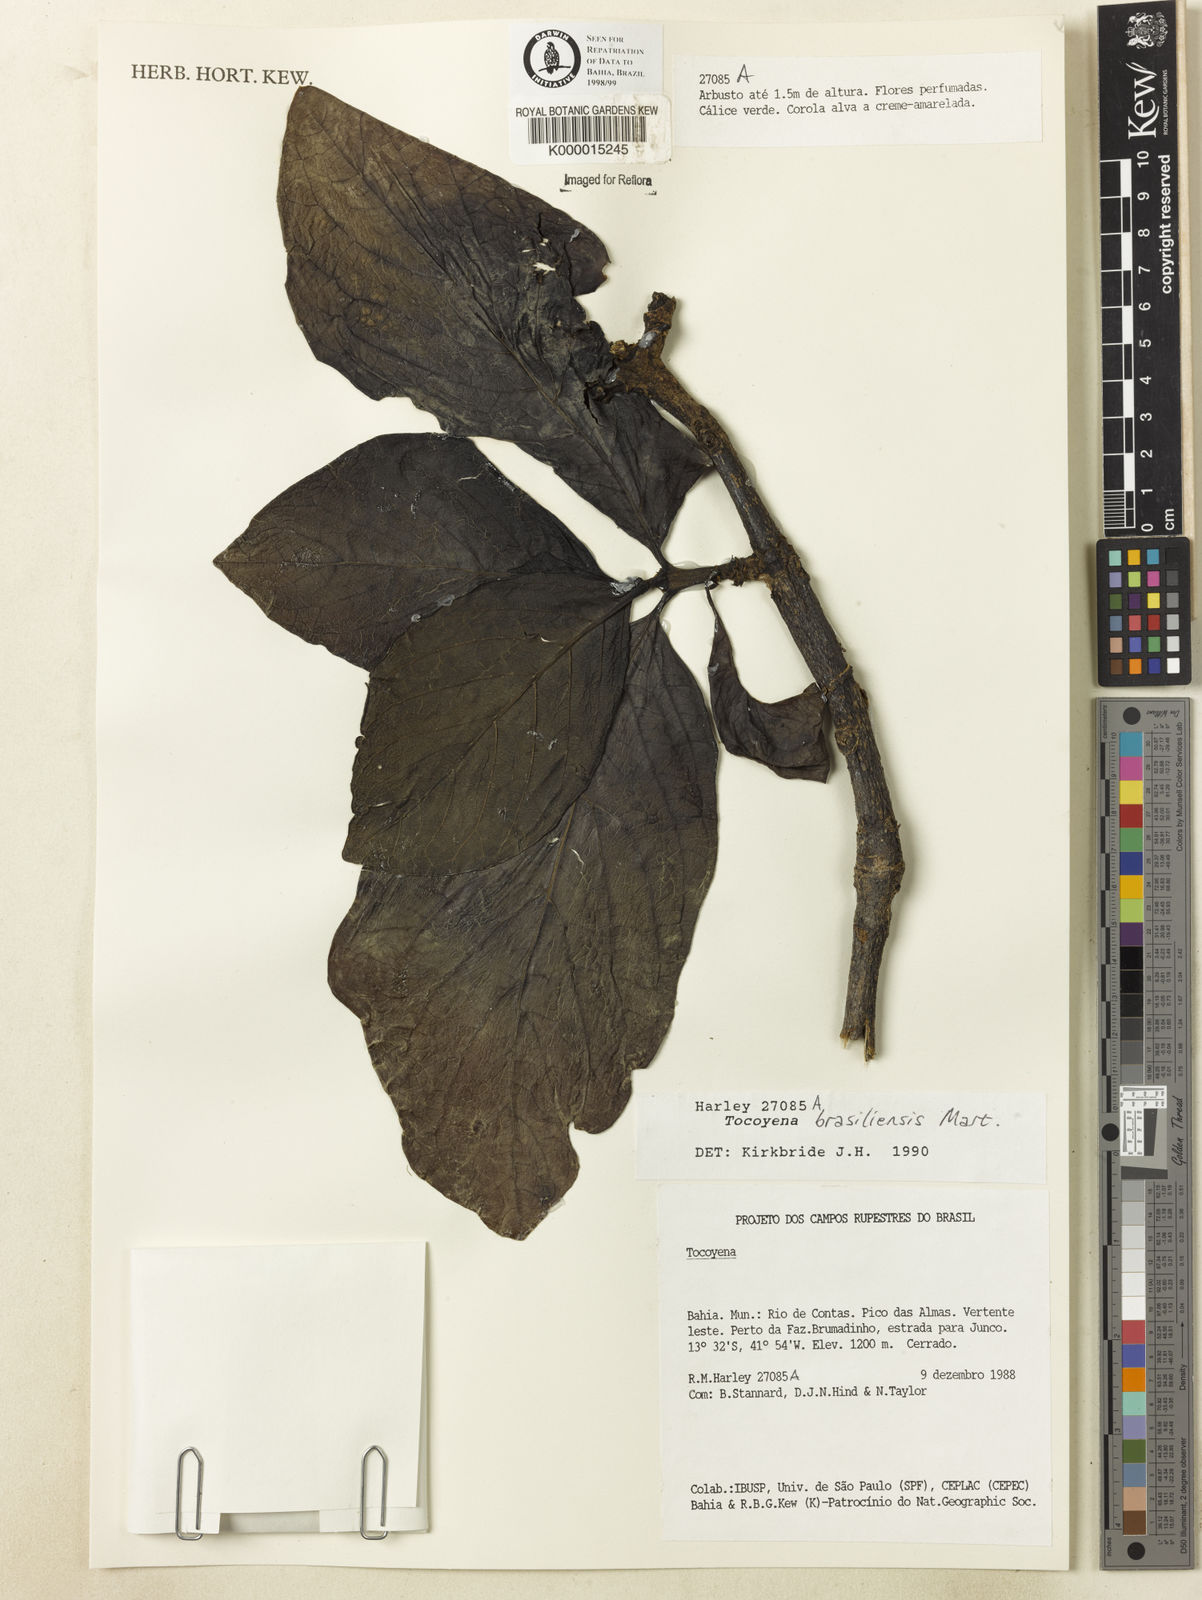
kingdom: Plantae
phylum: Tracheophyta
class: Magnoliopsida
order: Gentianales
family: Rubiaceae
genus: Tocoyena
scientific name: Tocoyena sprucei
